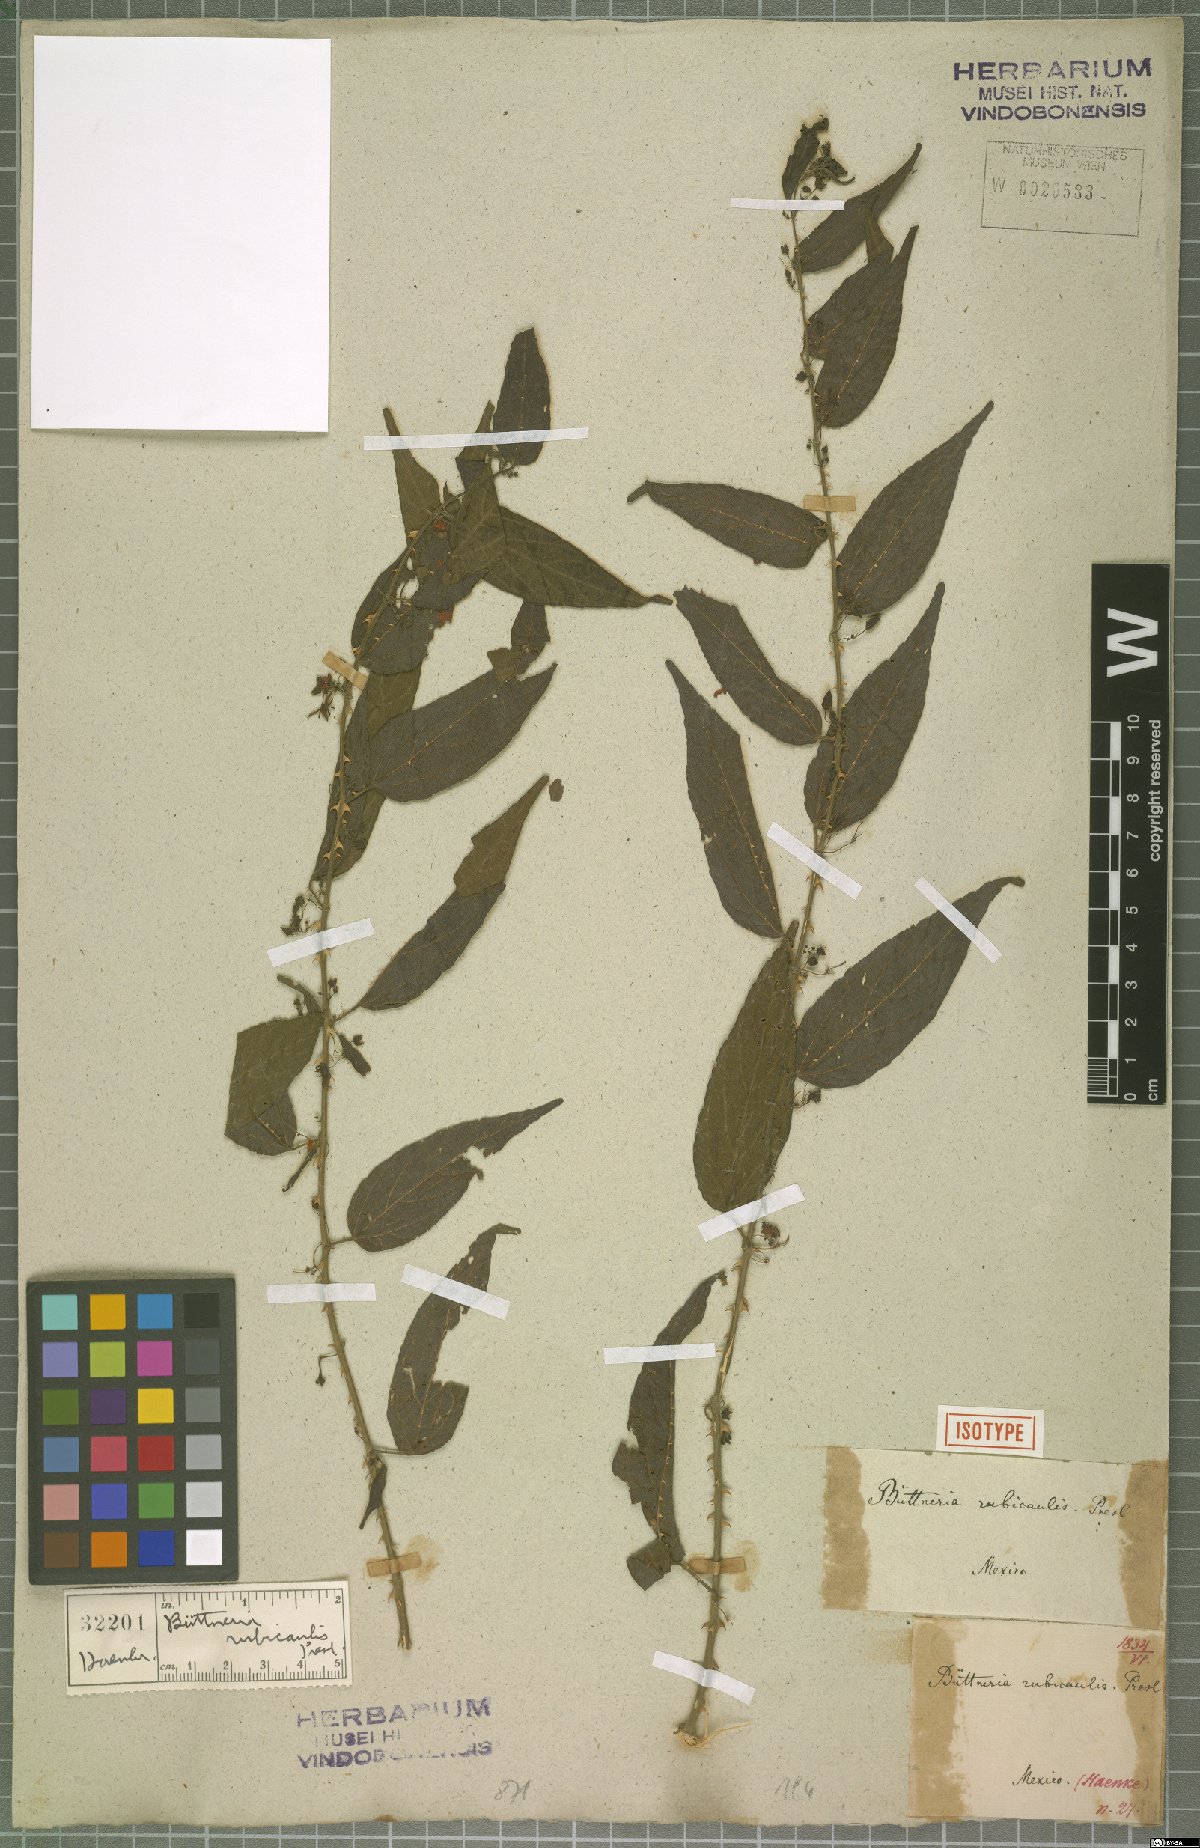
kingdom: Plantae
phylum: Tracheophyta
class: Magnoliopsida
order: Malvales
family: Malvaceae
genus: Byttneria
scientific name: Byttneria aculeata
